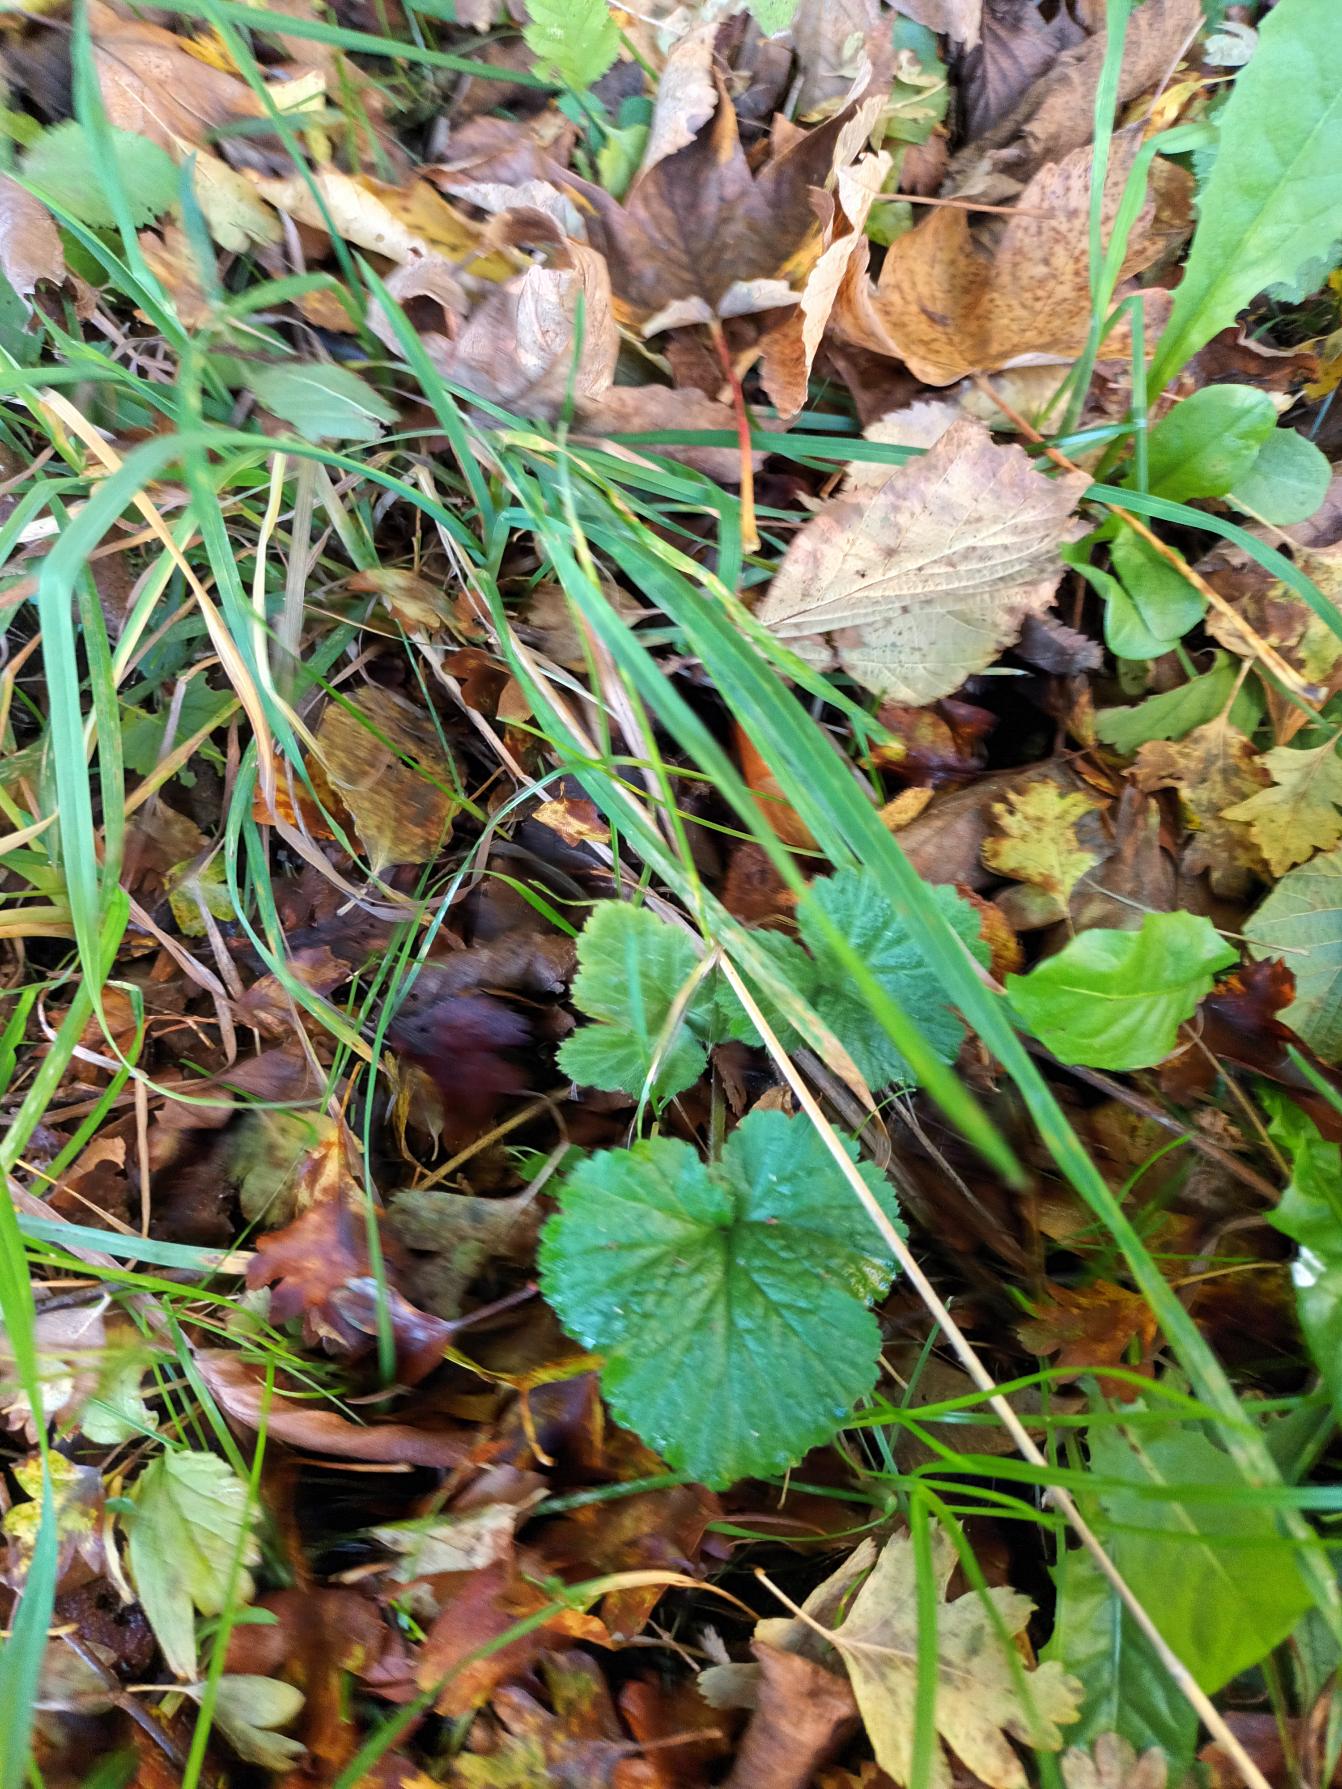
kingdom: Plantae
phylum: Tracheophyta
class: Magnoliopsida
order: Rosales
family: Rosaceae
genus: Geum
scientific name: Geum urbanum
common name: Feber-nellikerod
